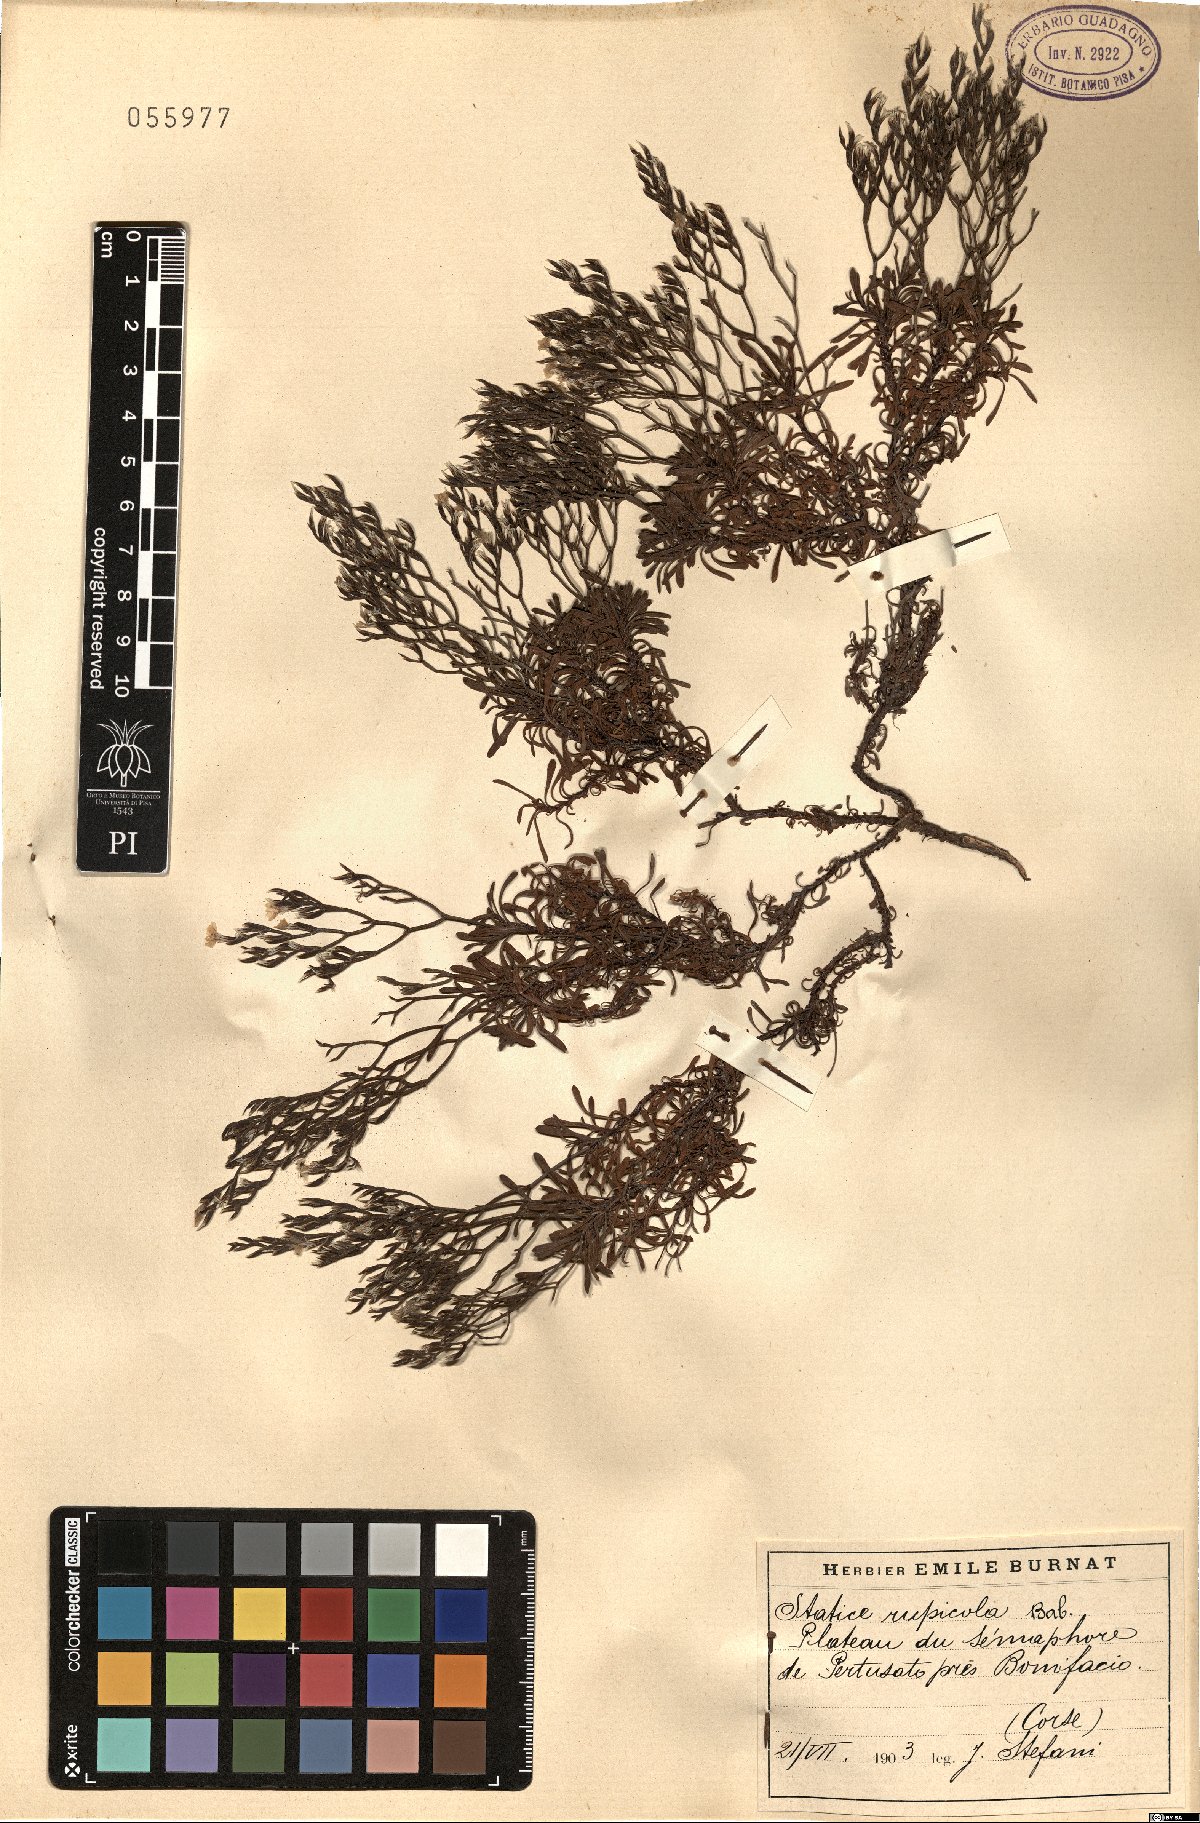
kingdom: Plantae
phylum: Tracheophyta
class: Magnoliopsida
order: Caryophyllales
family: Plumbaginaceae
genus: Limonium
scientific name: Limonium acutifolium
